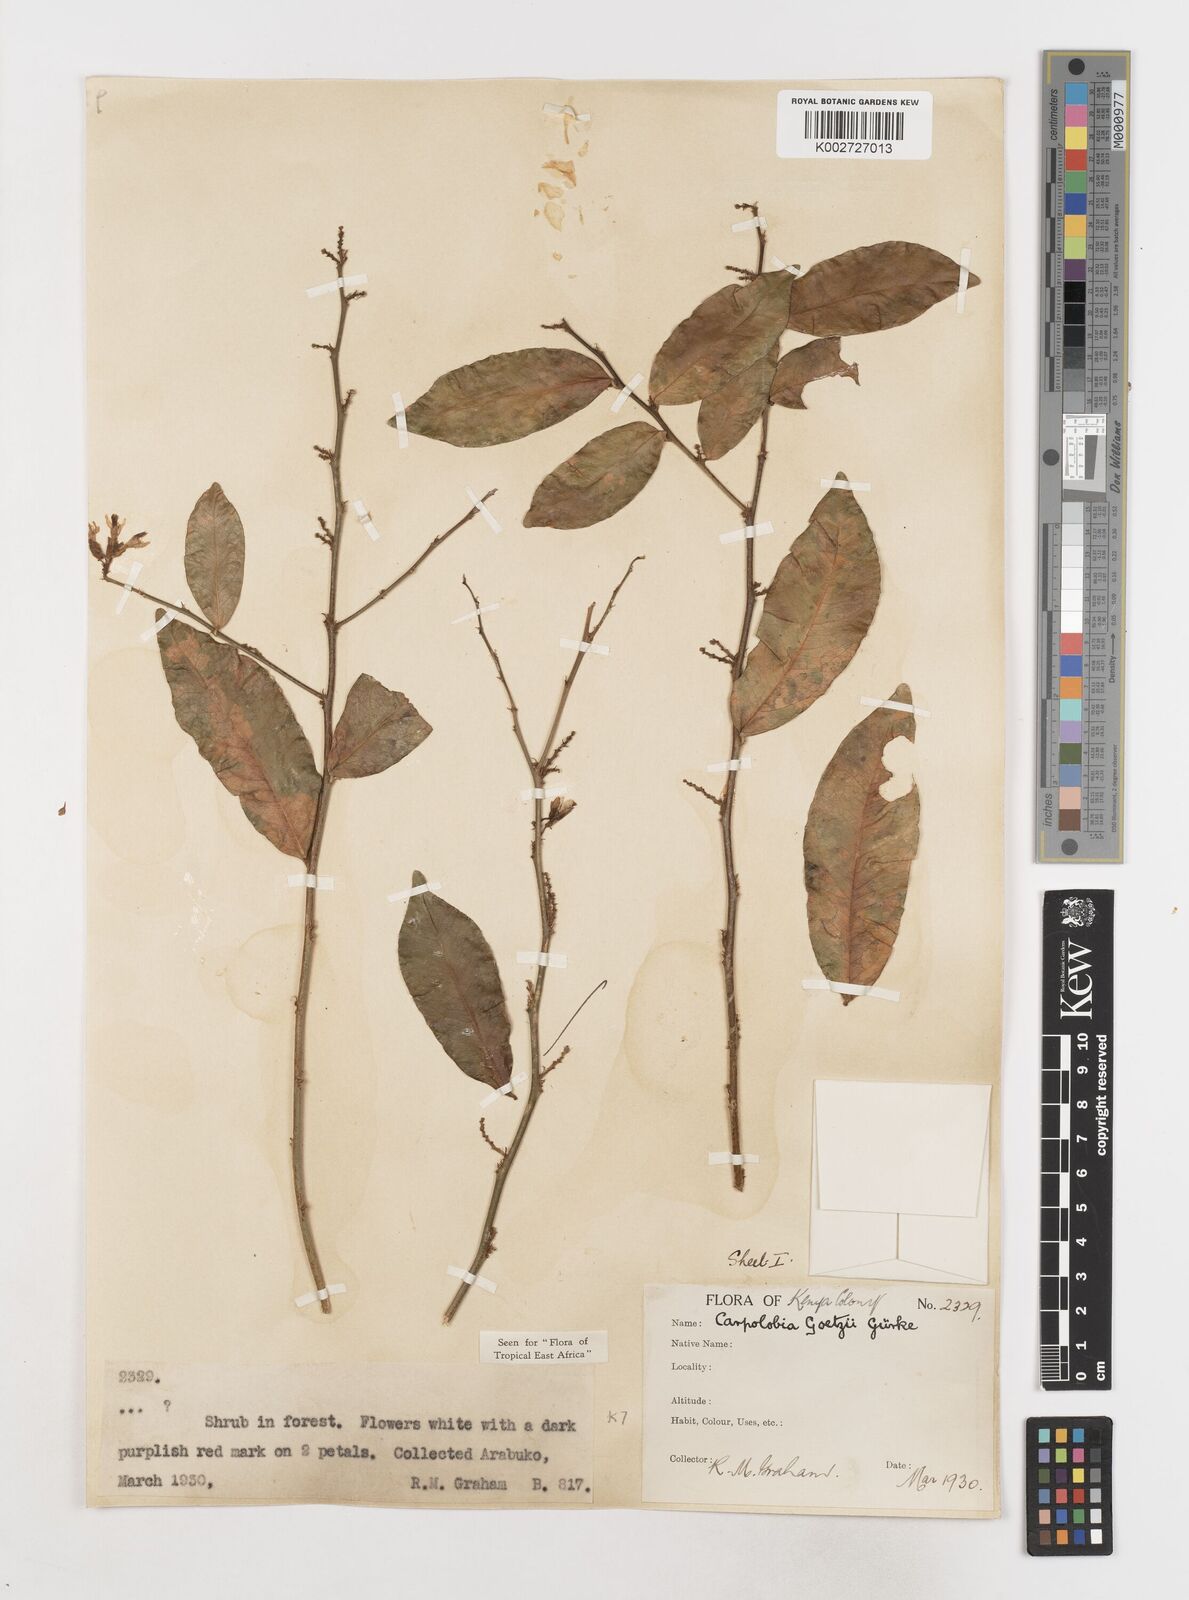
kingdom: Plantae
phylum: Tracheophyta
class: Magnoliopsida
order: Fabales
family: Polygalaceae
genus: Carpolobia
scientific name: Carpolobia goetzei
